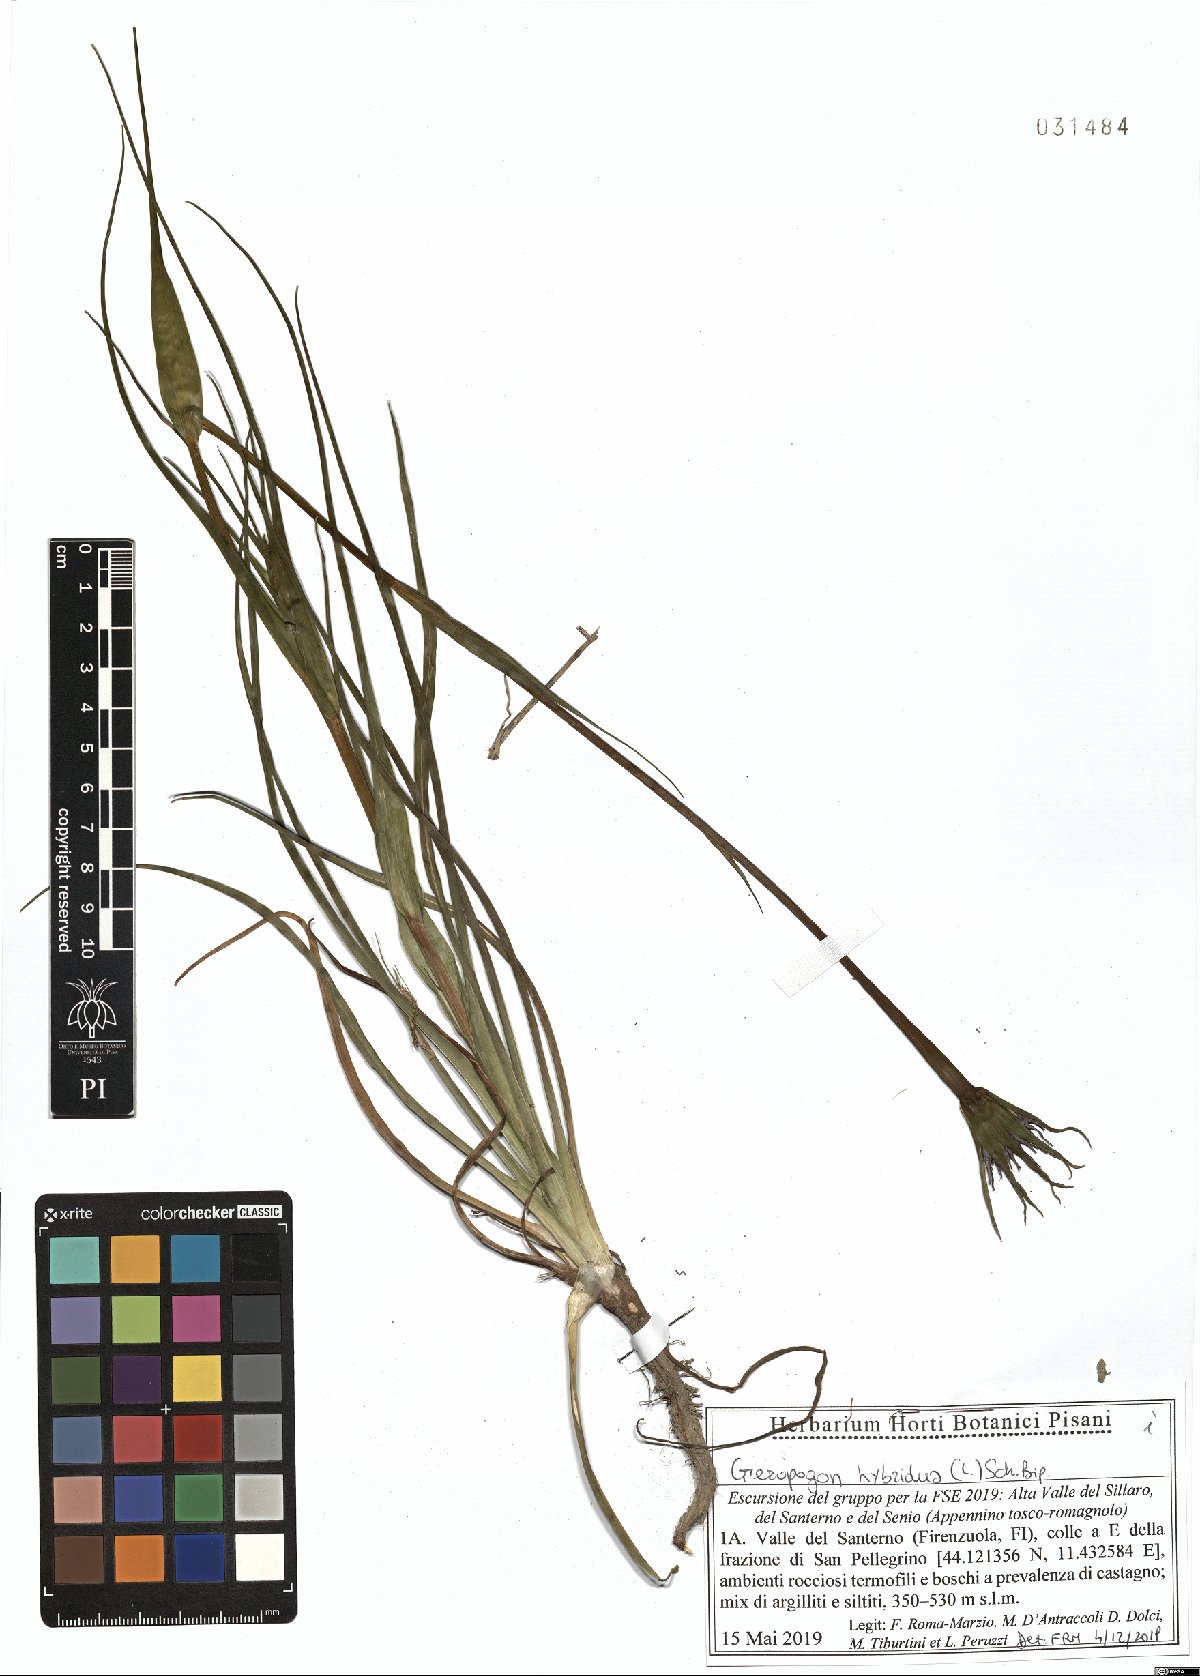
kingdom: Plantae
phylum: Tracheophyta
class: Magnoliopsida
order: Asterales
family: Asteraceae
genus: Geropogon
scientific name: Geropogon hybridus
